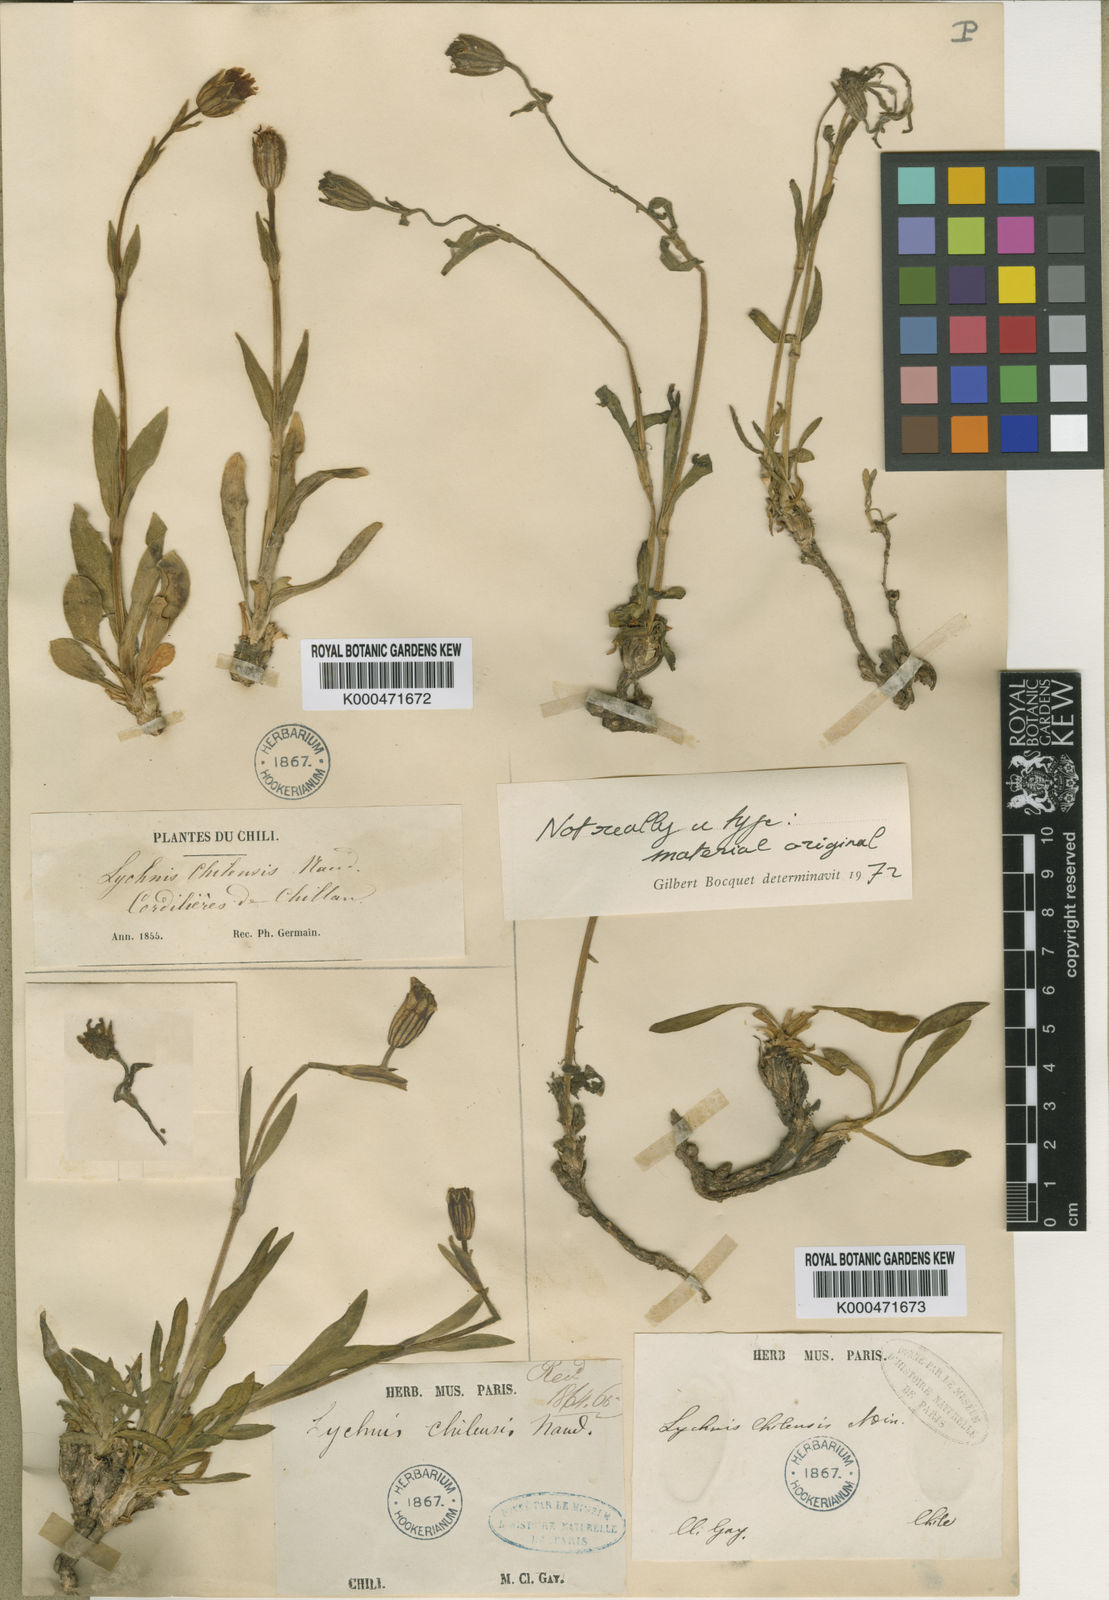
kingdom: Plantae
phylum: Tracheophyta
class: Magnoliopsida
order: Caryophyllales
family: Caryophyllaceae
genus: Silene
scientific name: Silene chilensis
